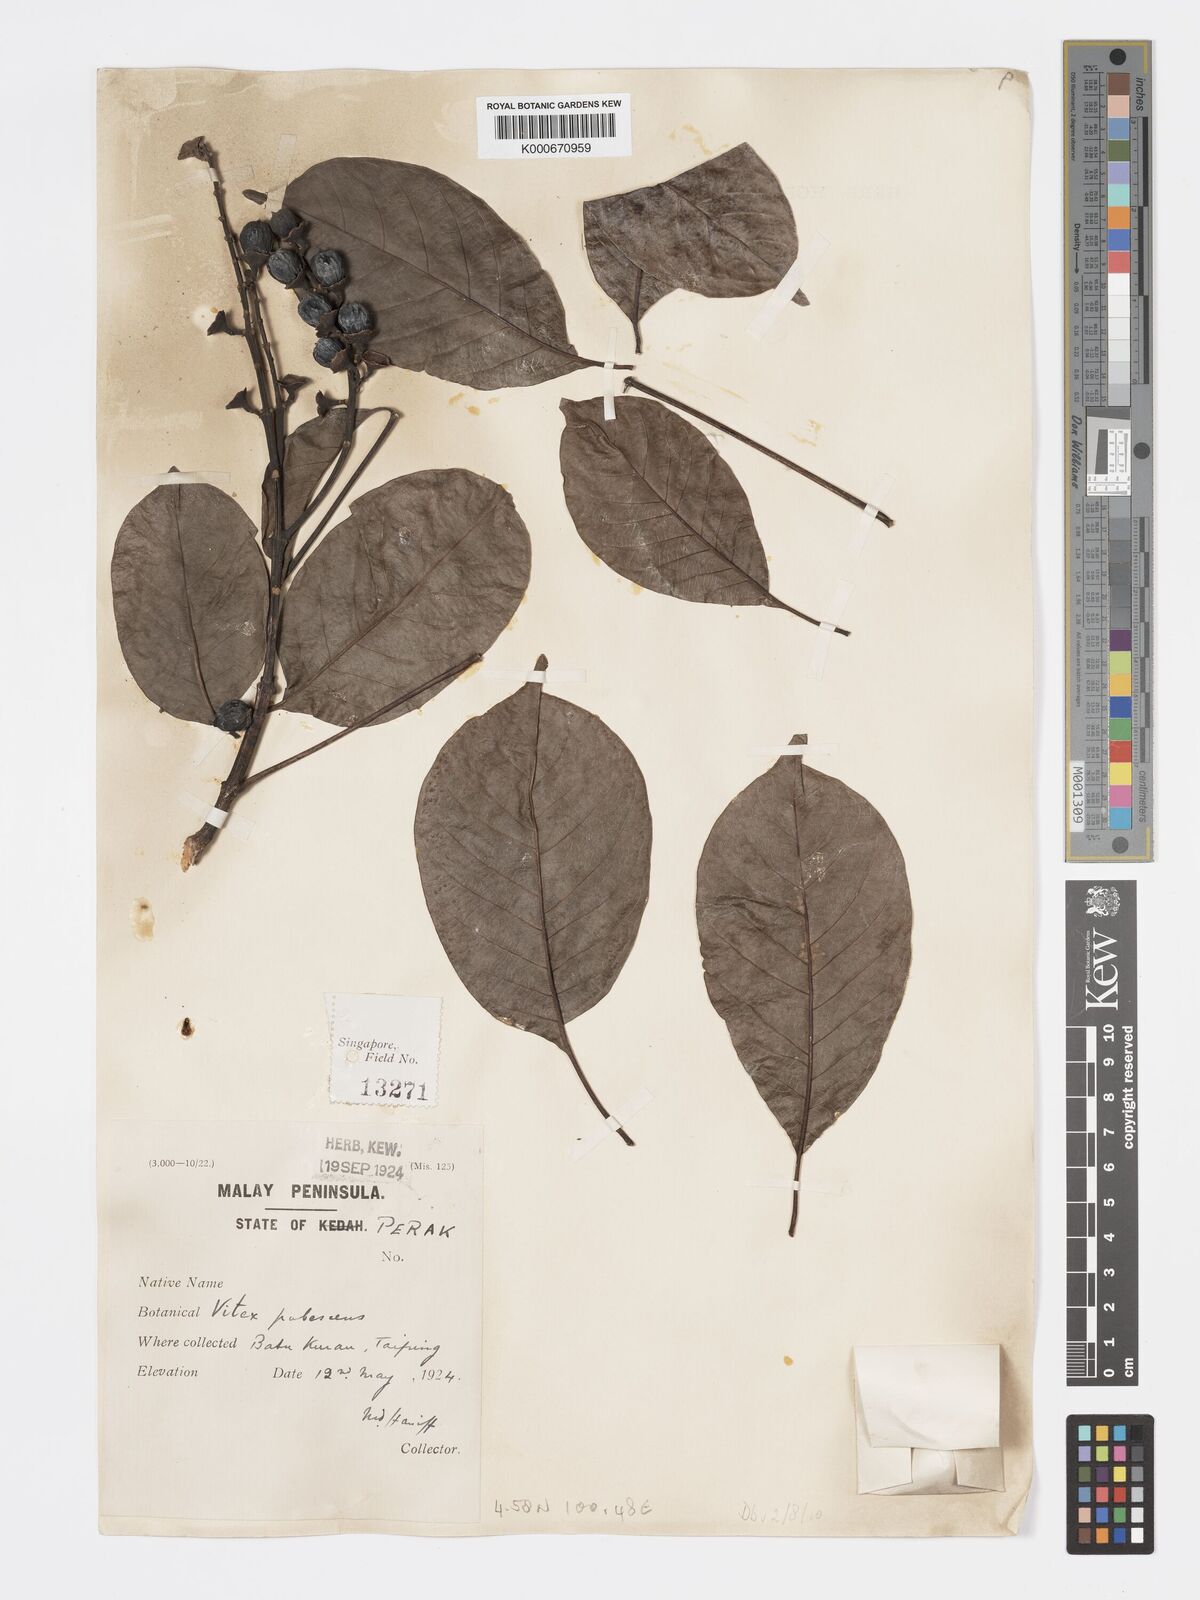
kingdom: Plantae
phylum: Tracheophyta
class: Magnoliopsida
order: Lamiales
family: Lamiaceae
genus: Vitex
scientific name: Vitex pinnata
